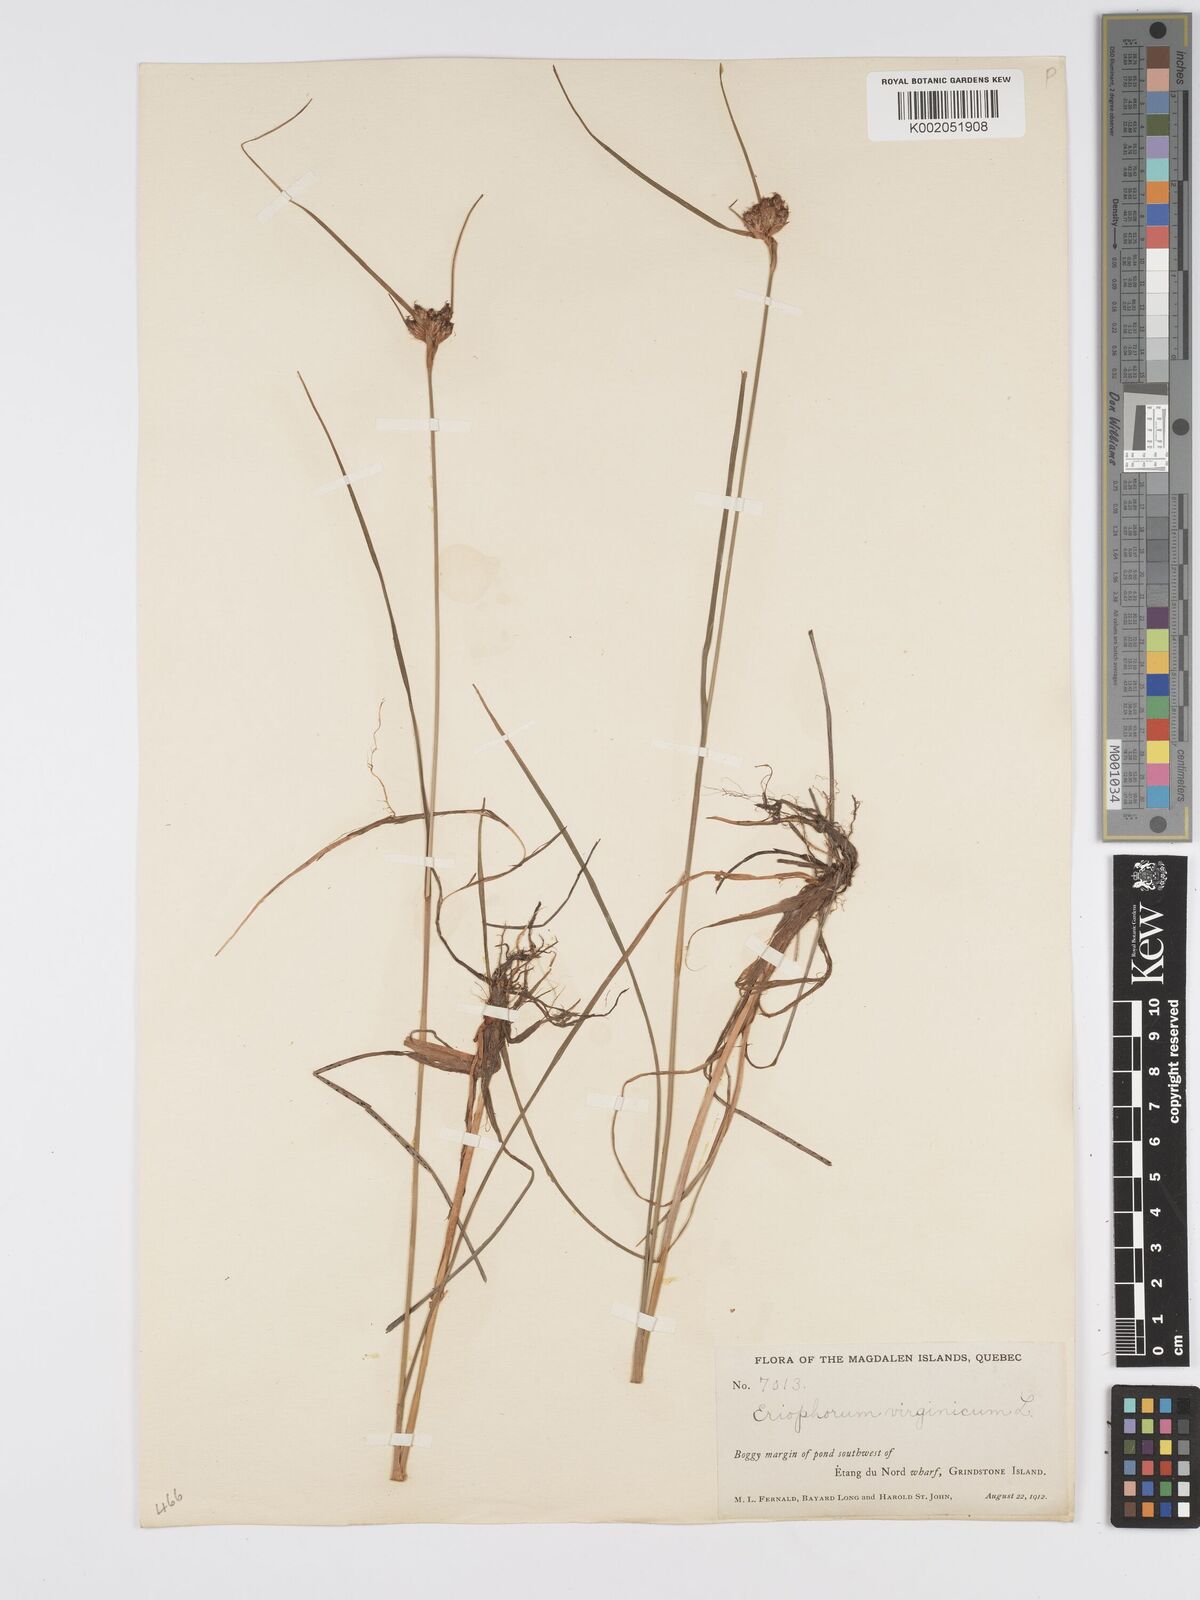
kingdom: Plantae
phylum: Tracheophyta
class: Liliopsida
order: Poales
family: Cyperaceae
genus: Eriophorum
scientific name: Eriophorum virginicum
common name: Tawny cottongrass
